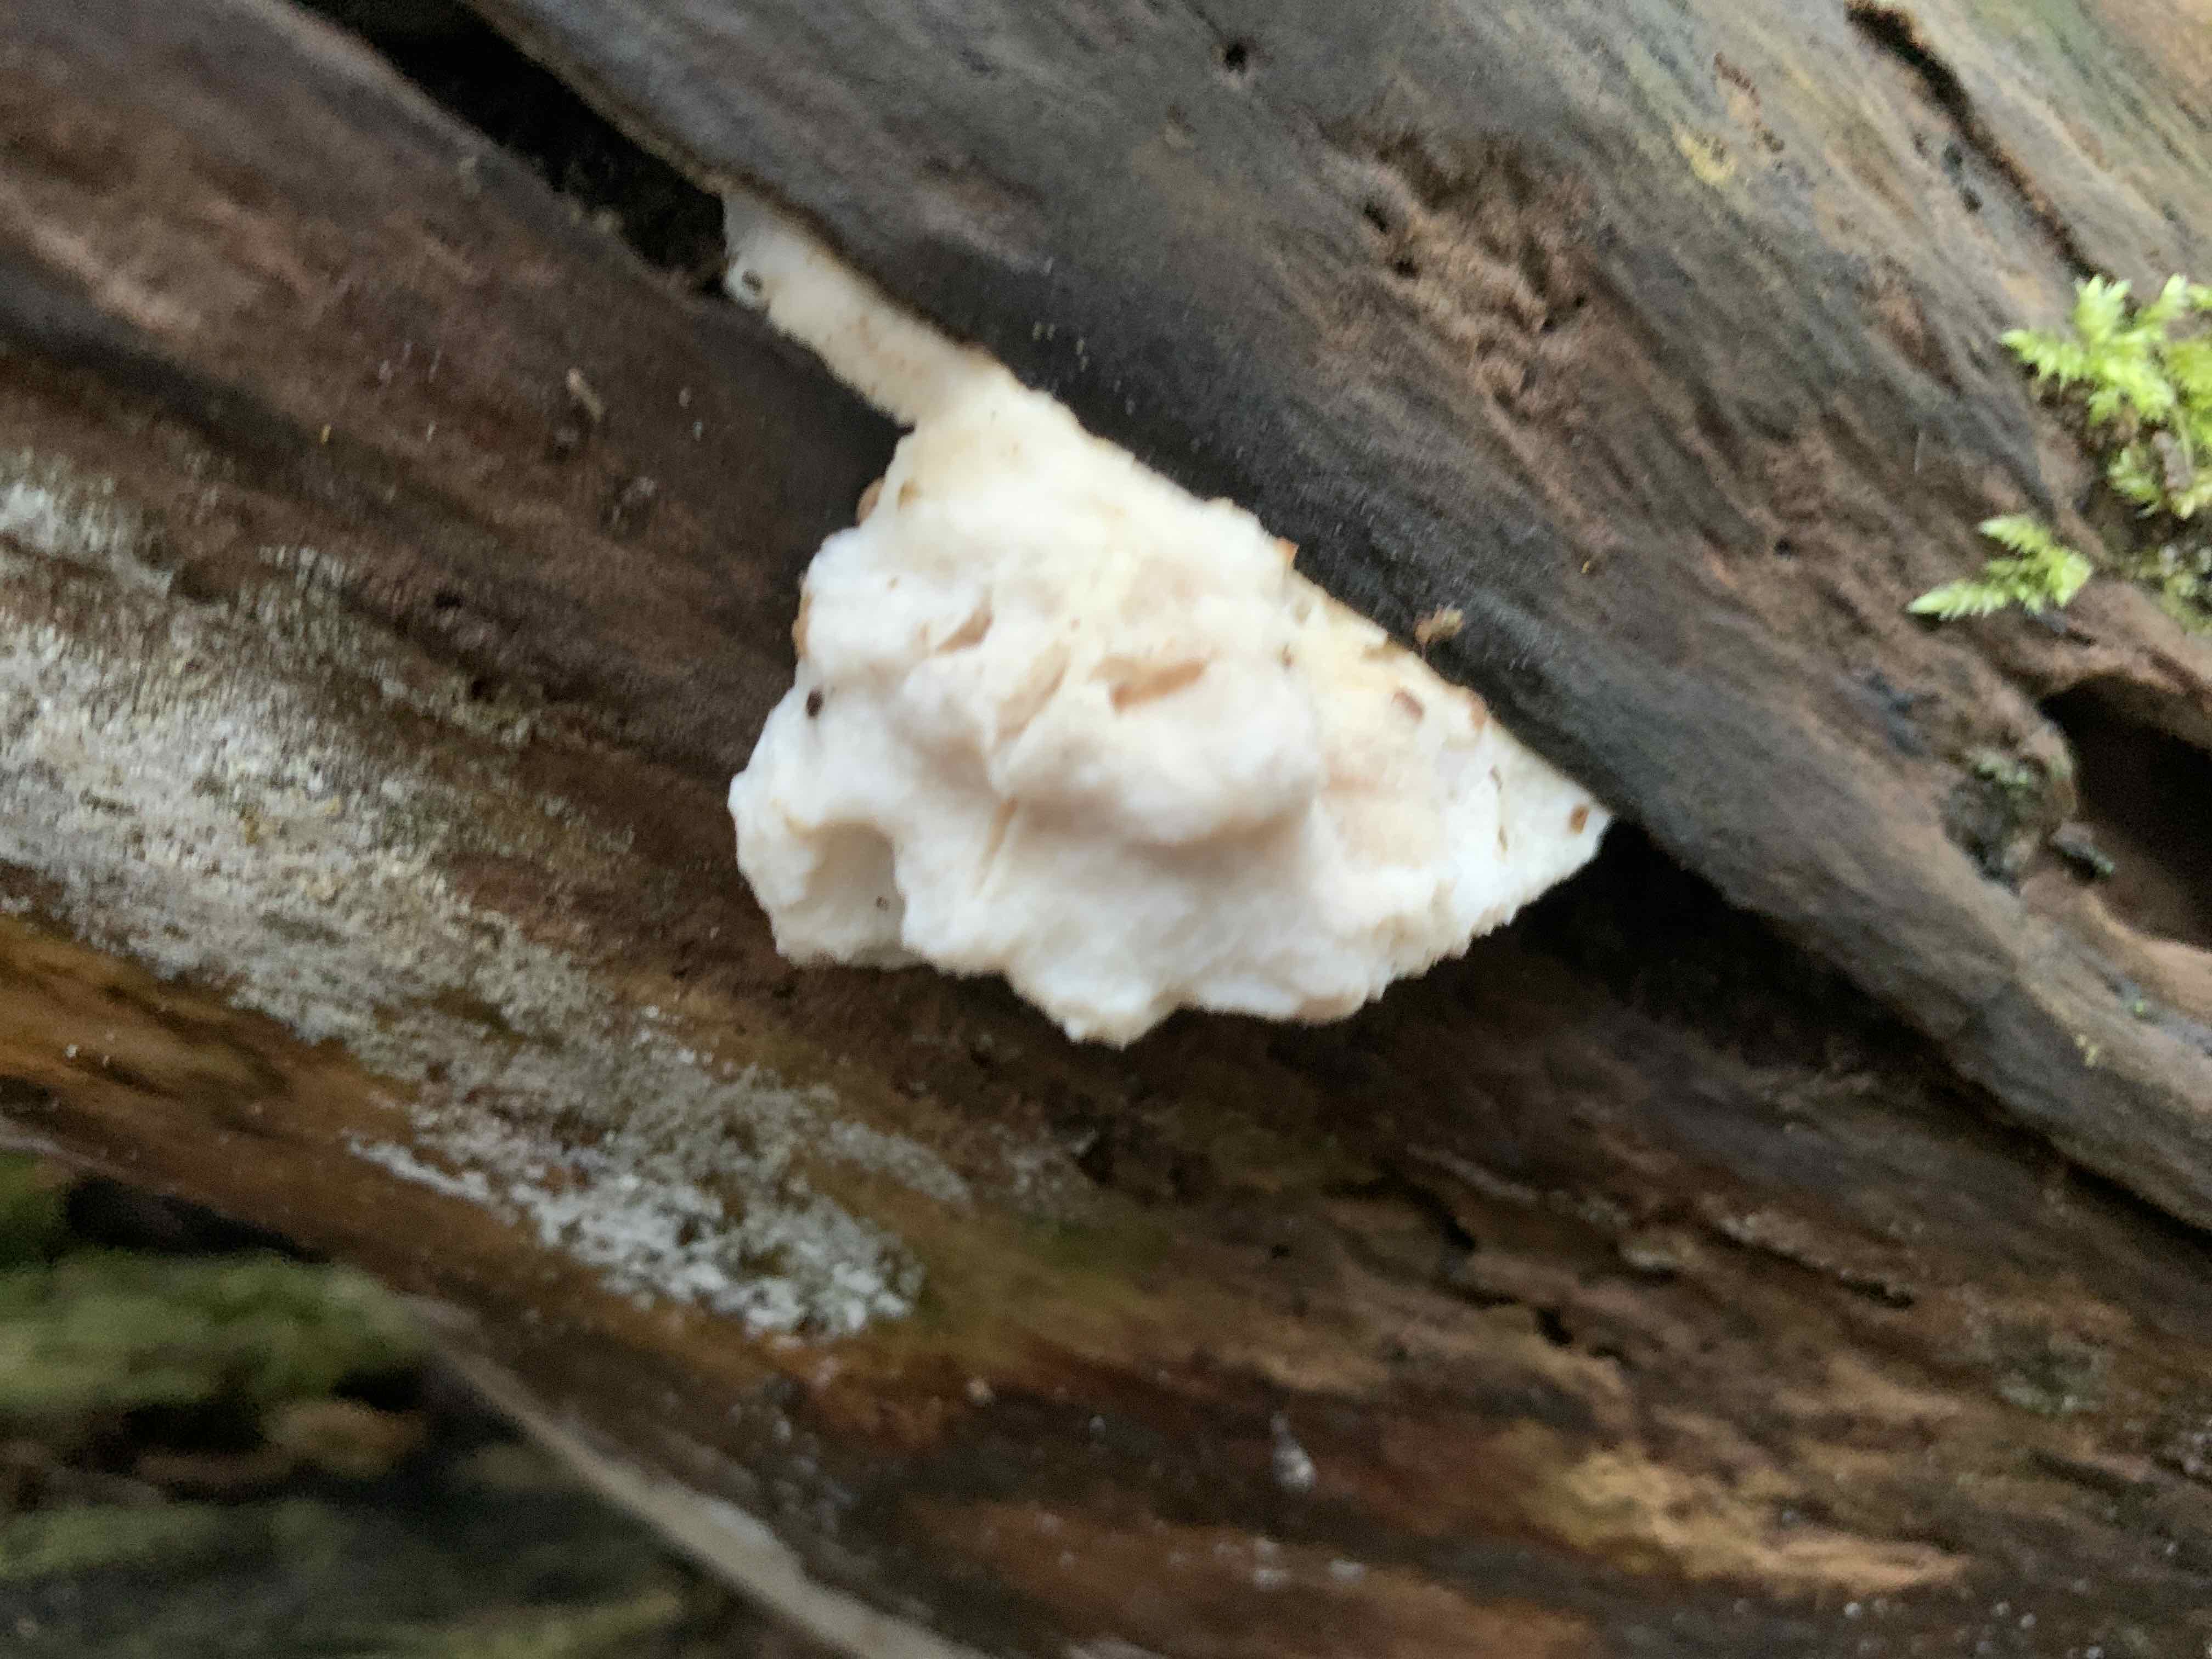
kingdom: Fungi
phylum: Basidiomycota
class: Agaricomycetes
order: Polyporales
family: Incrustoporiaceae
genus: Tyromyces
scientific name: Tyromyces lacteus
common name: mælkehvid kødporesvamp
